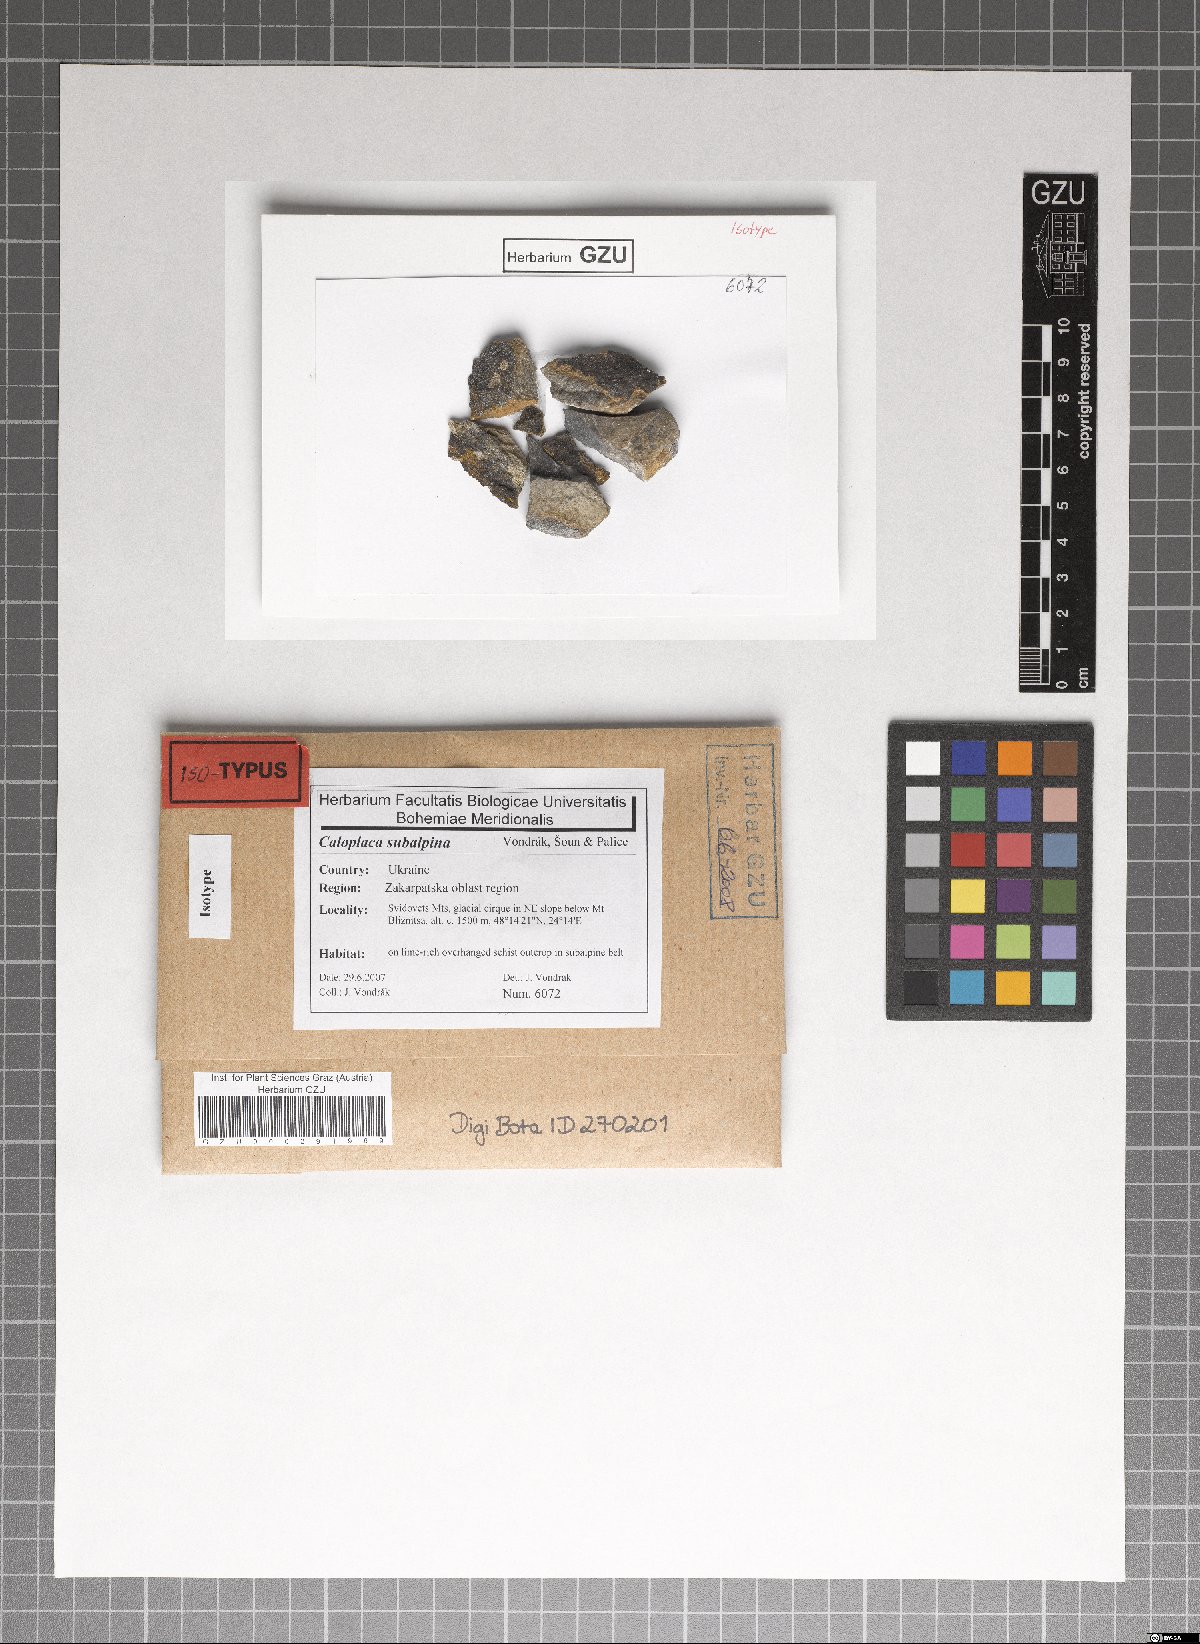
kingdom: Fungi
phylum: Ascomycota
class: Lecanoromycetes
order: Teloschistales
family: Teloschistaceae
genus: Caloplaca
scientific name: Caloplaca subalpina
